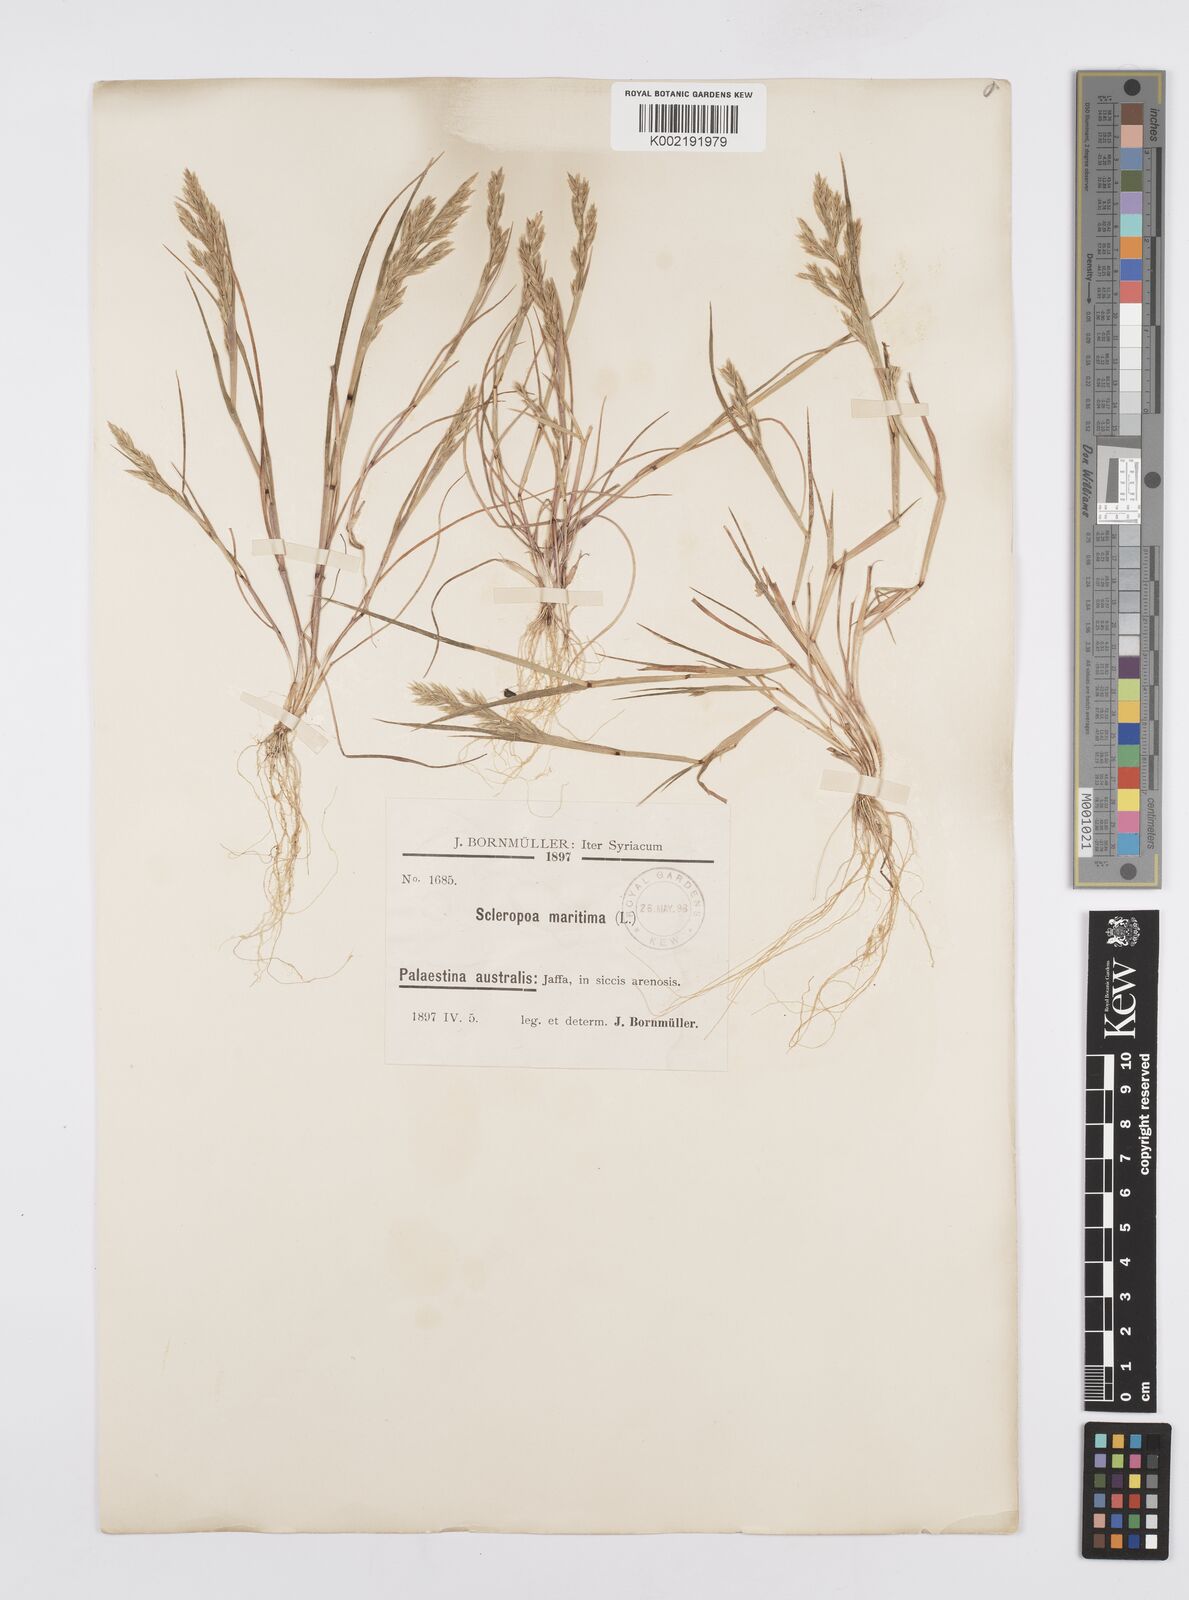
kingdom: Plantae
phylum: Tracheophyta
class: Liliopsida
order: Poales
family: Poaceae
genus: Cutandia
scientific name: Cutandia maritima
